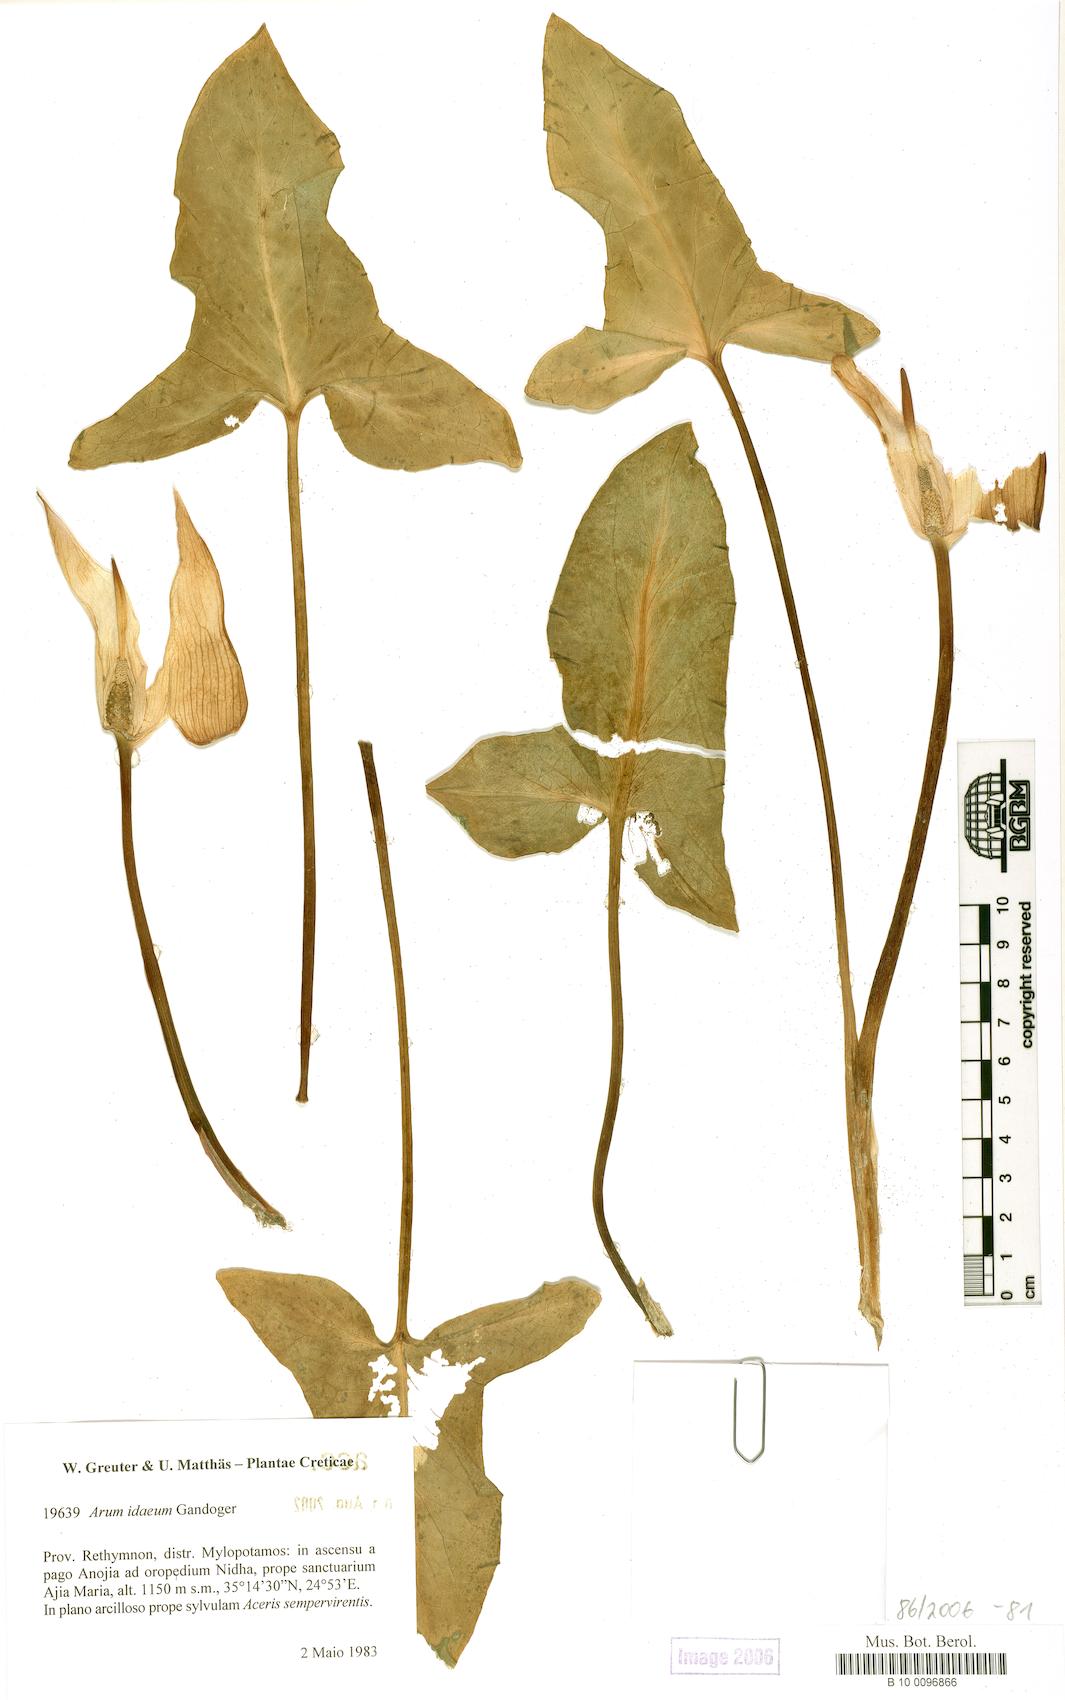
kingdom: Plantae
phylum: Tracheophyta
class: Liliopsida
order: Alismatales
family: Araceae
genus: Arum
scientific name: Arum idaeum
